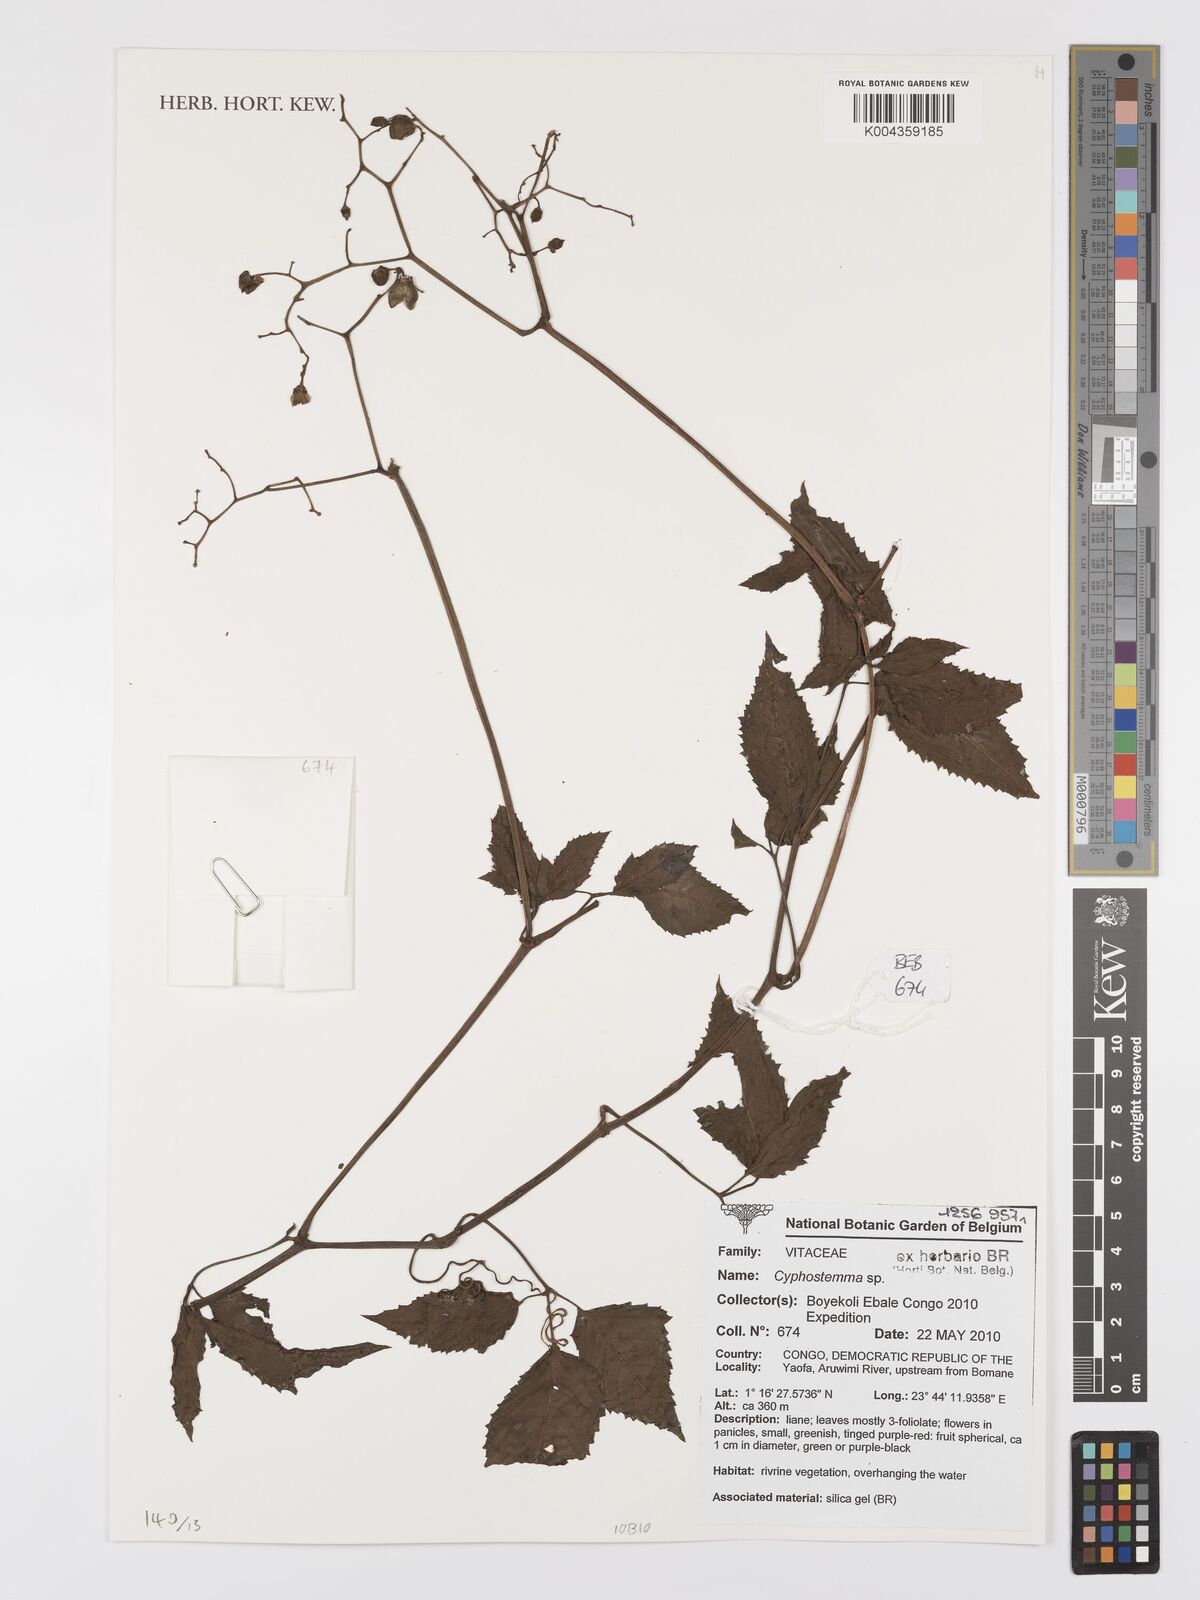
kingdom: Plantae
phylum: Tracheophyta
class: Magnoliopsida
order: Vitales
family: Vitaceae
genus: Cyphostemma
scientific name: Cyphostemma
